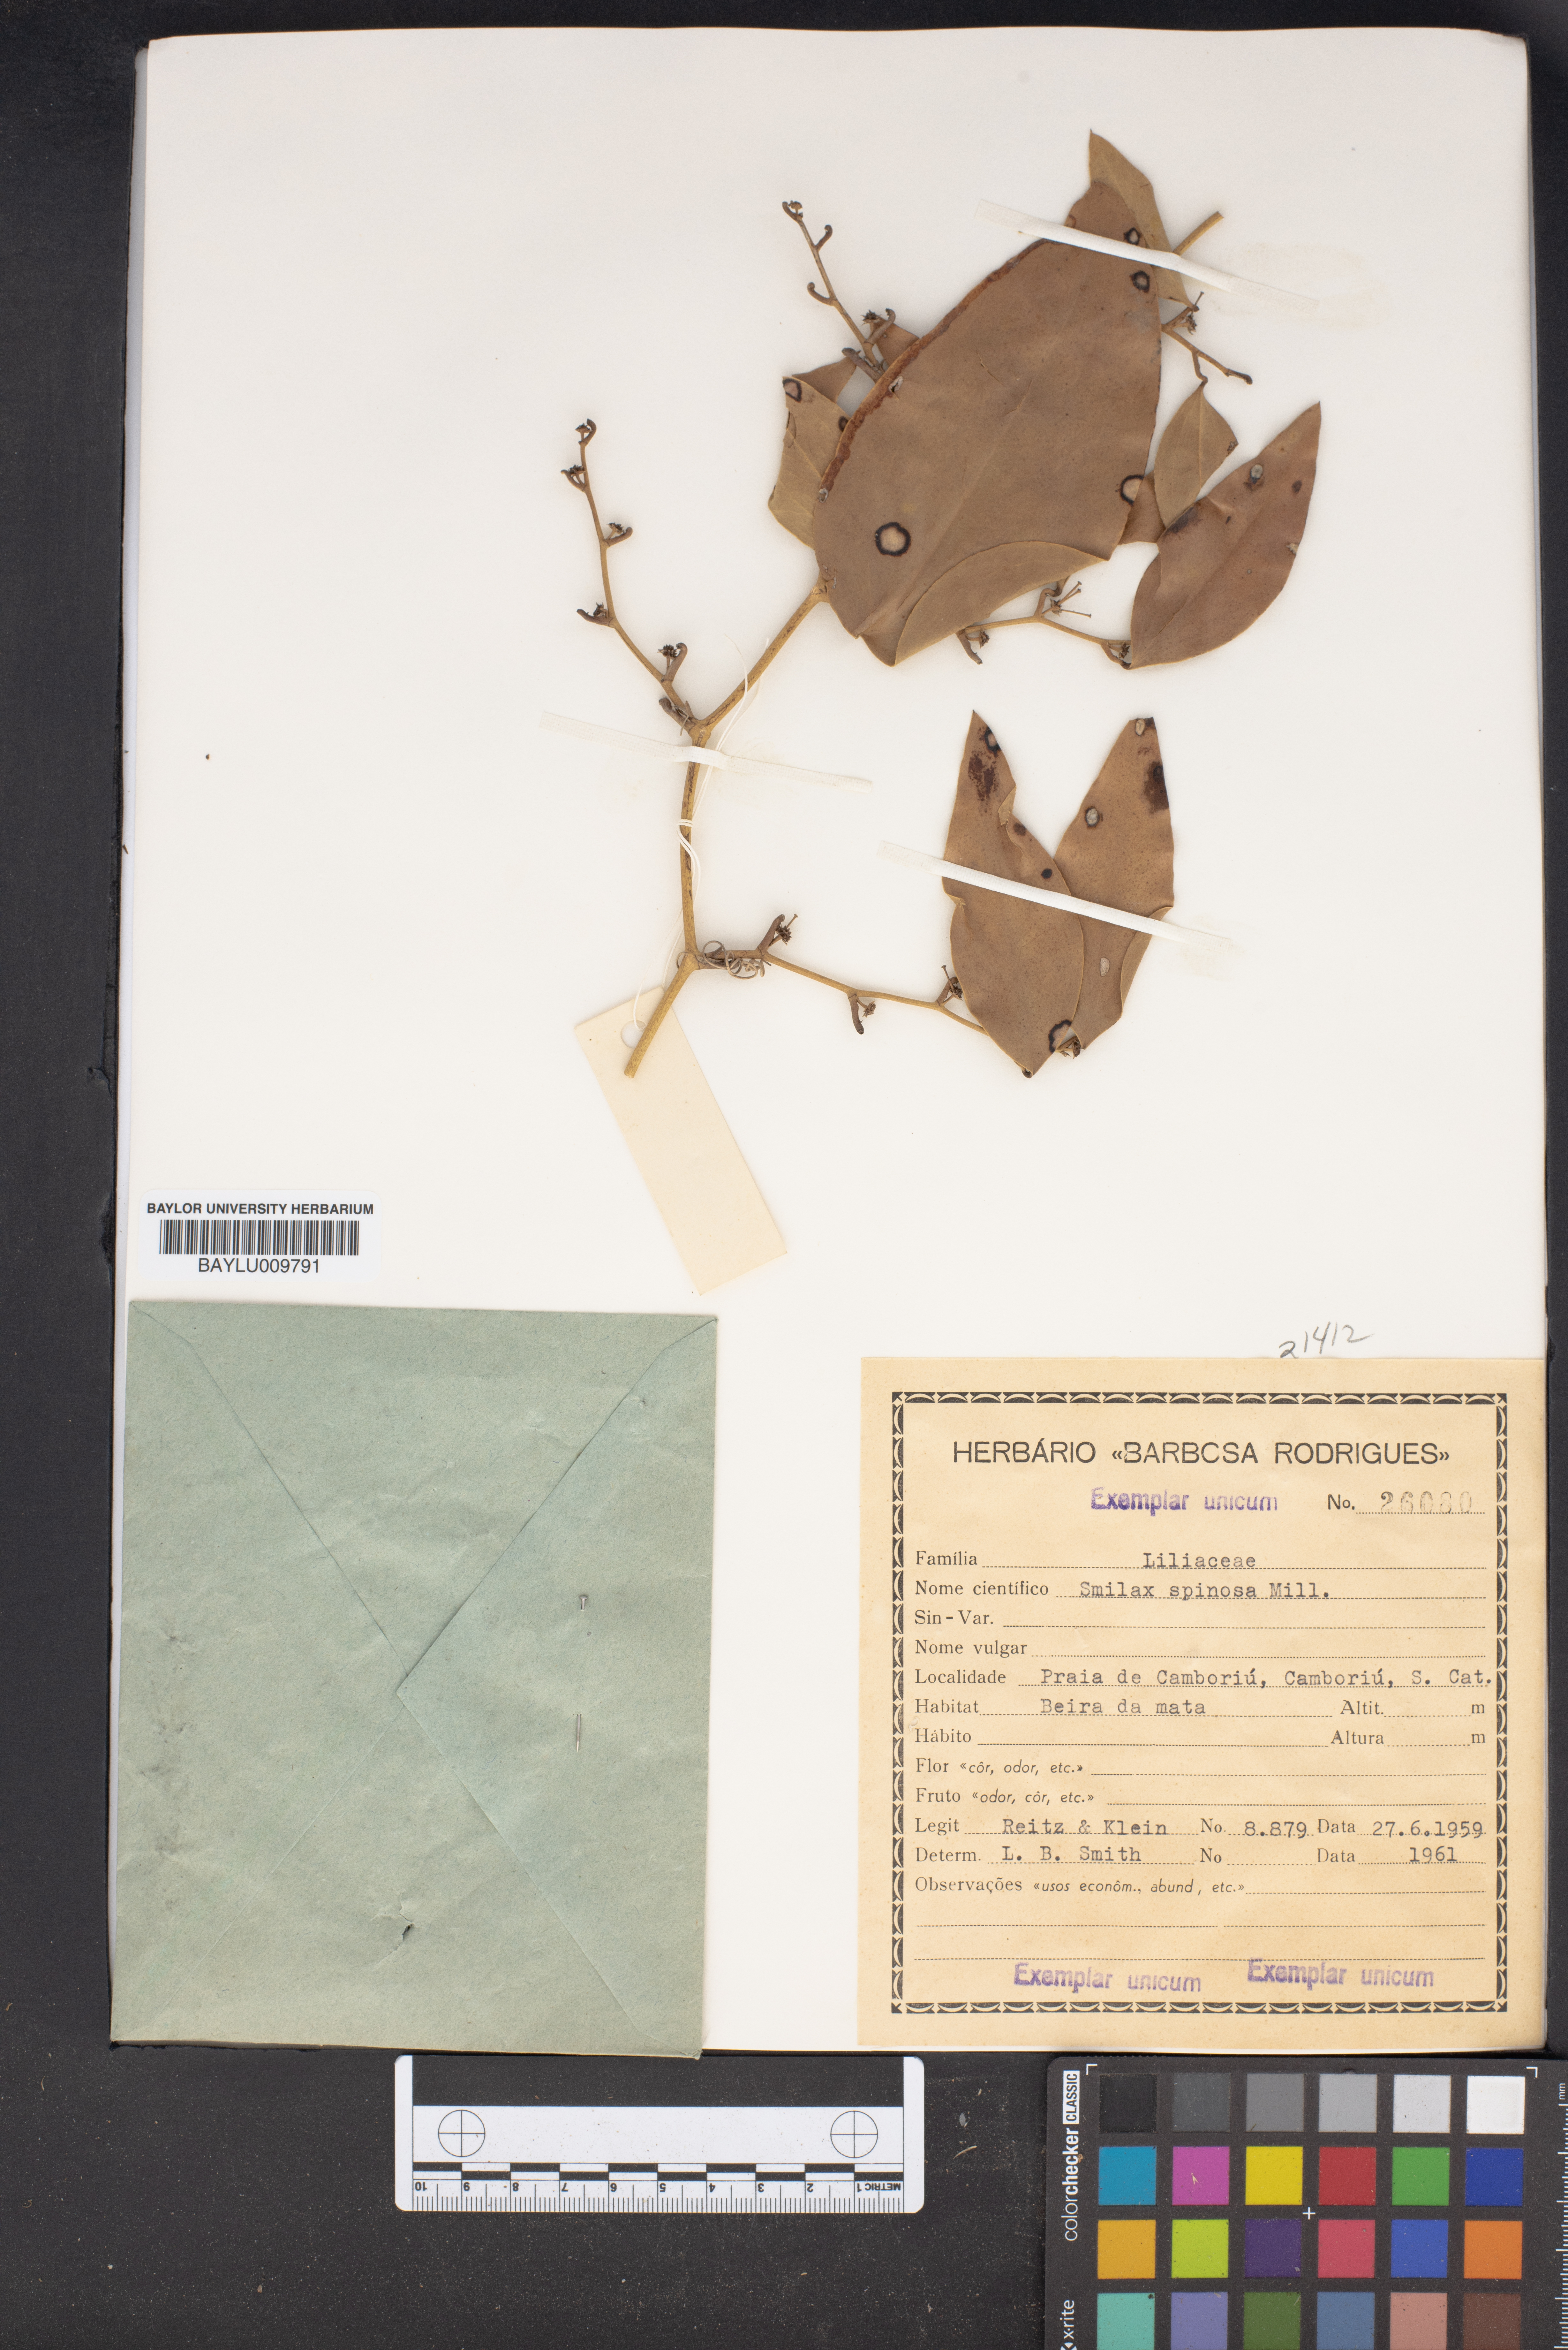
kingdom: Plantae
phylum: Tracheophyta
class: Liliopsida
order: Liliales
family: Smilacaceae
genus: Smilax
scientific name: Smilax spinosa
